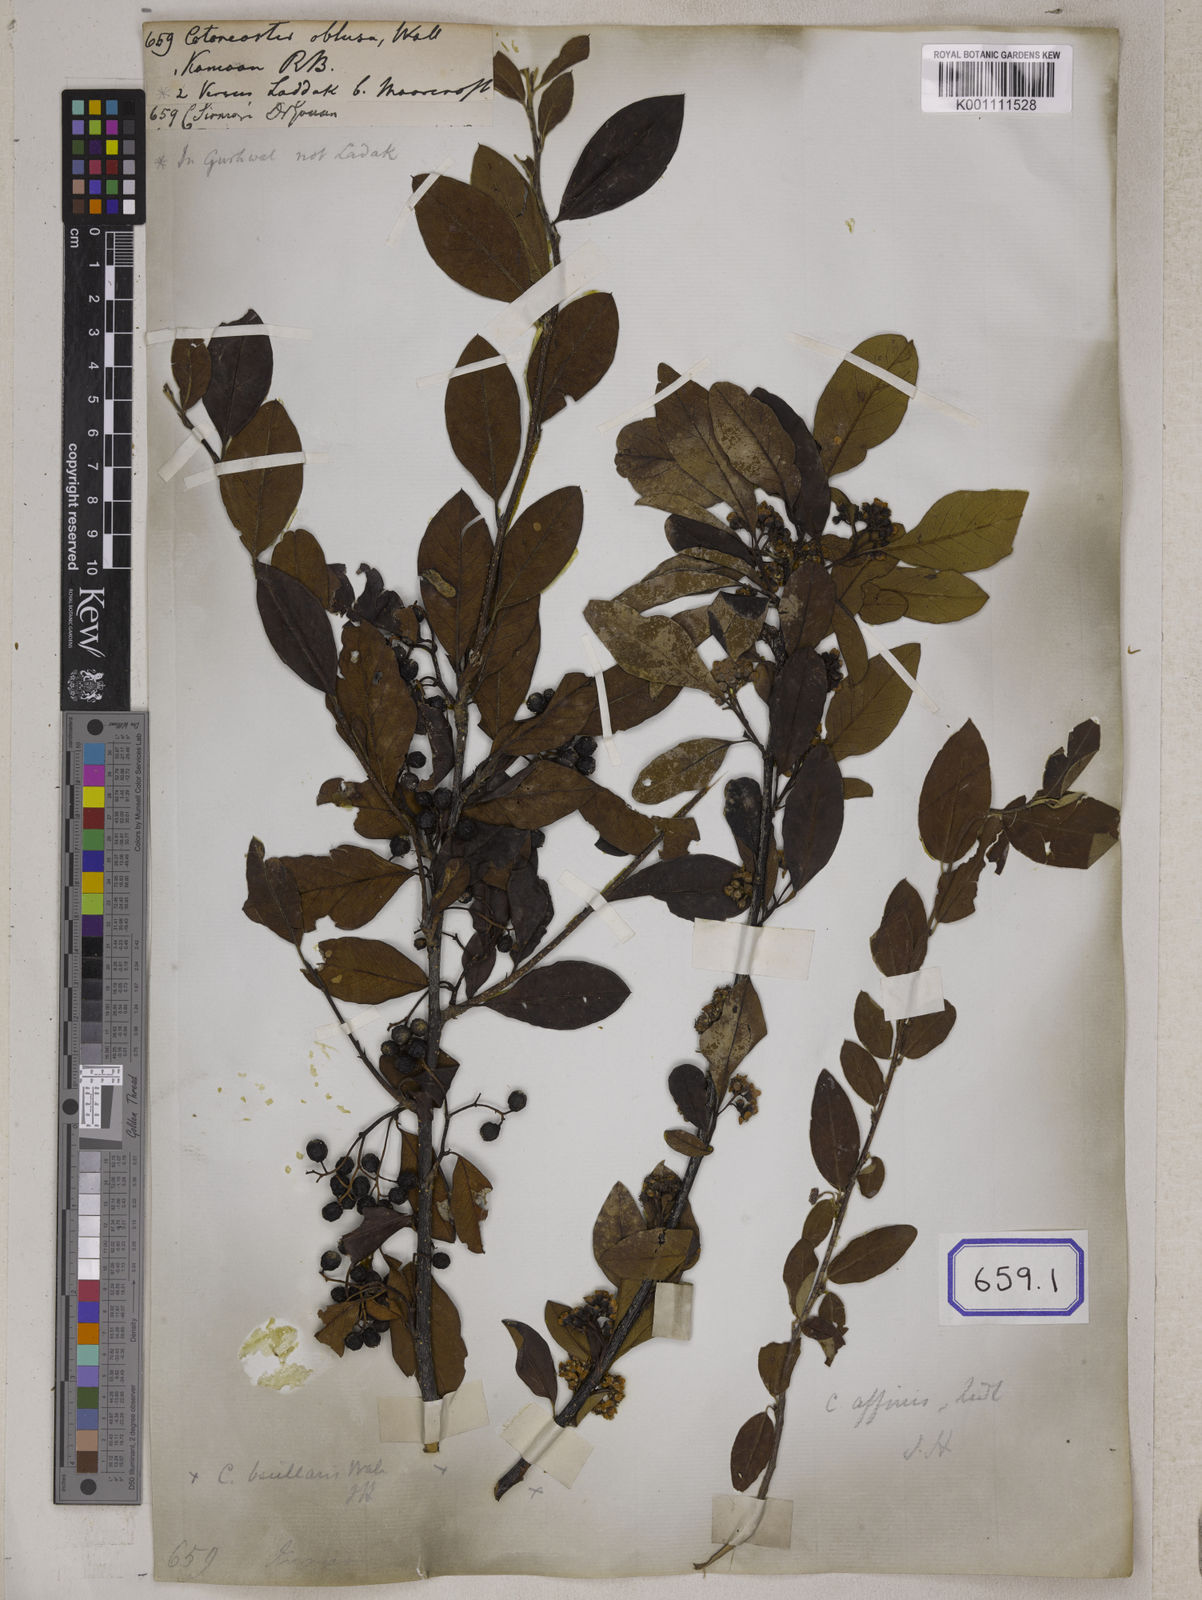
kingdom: Plantae
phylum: Tracheophyta
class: Magnoliopsida
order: Rosales
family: Rosaceae
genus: Cotoneaster
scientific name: Cotoneaster
